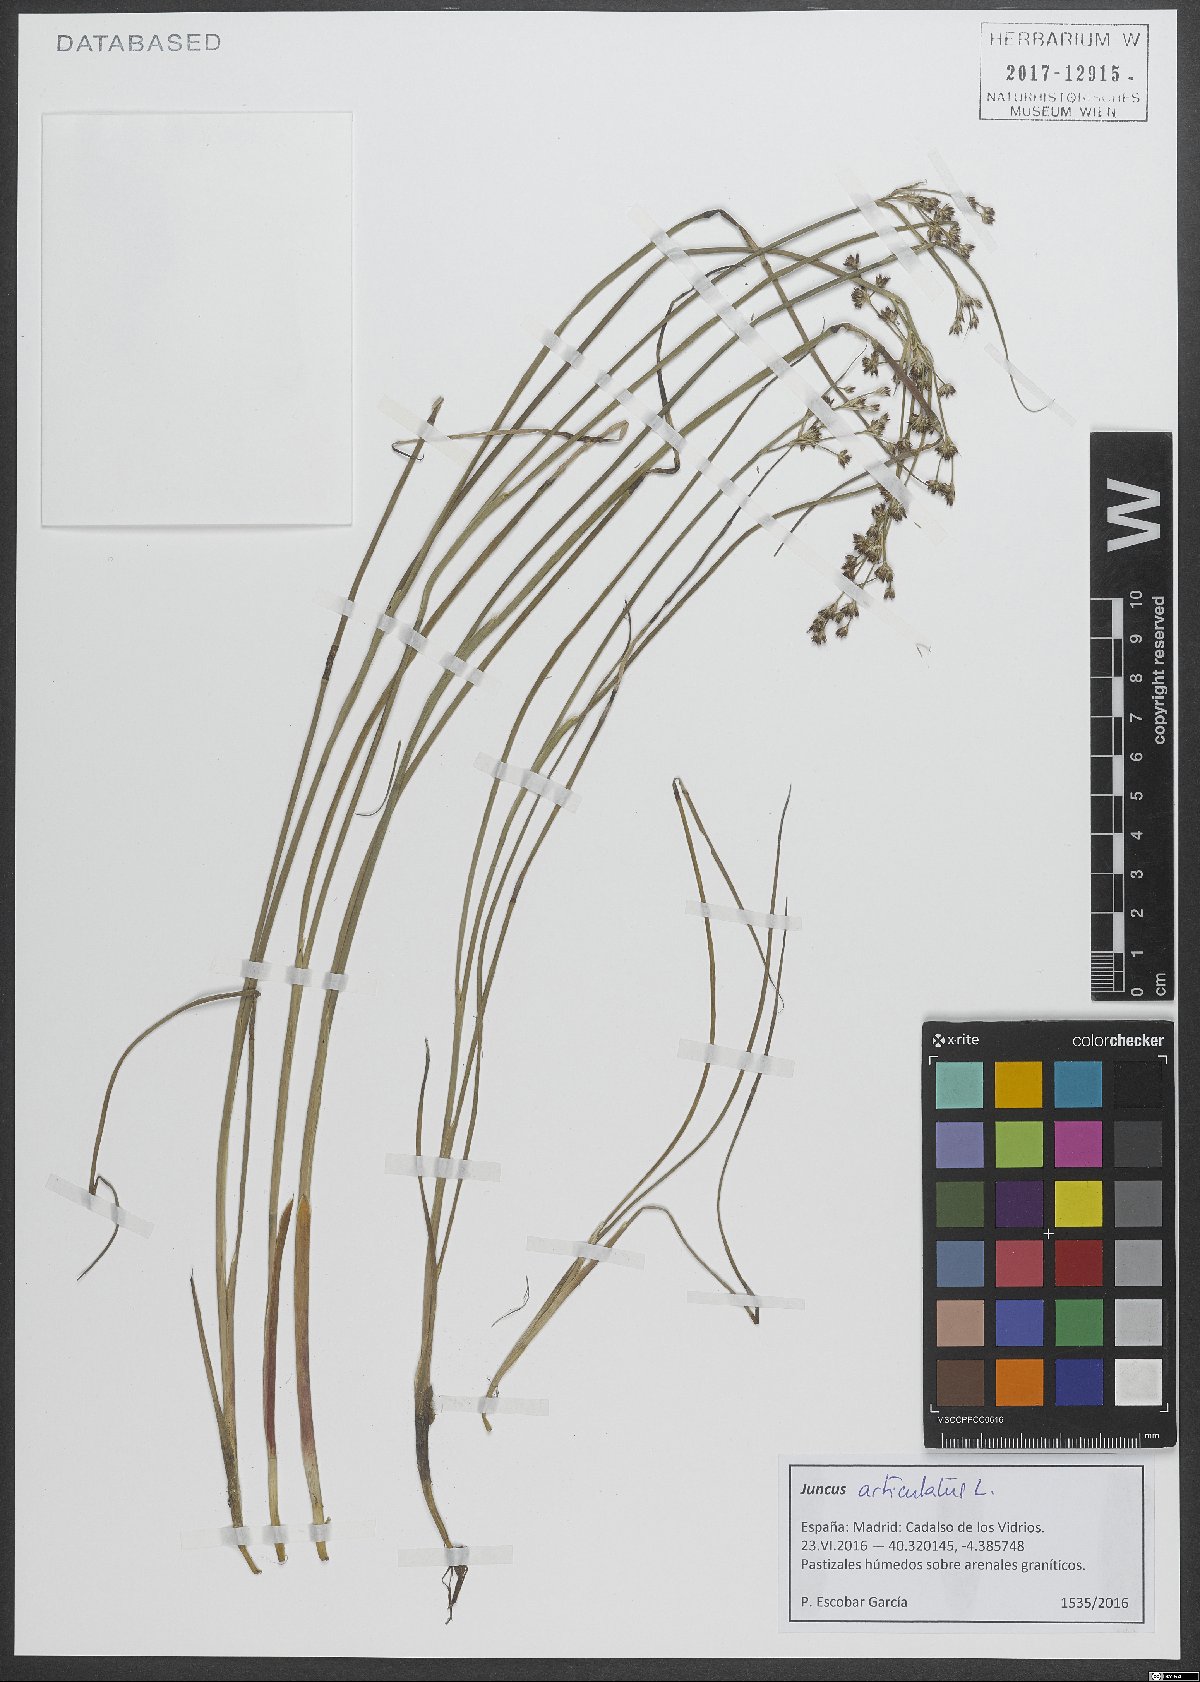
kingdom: Plantae
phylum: Tracheophyta
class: Liliopsida
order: Poales
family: Juncaceae
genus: Juncus
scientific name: Juncus articulatus
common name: Jointed rush
